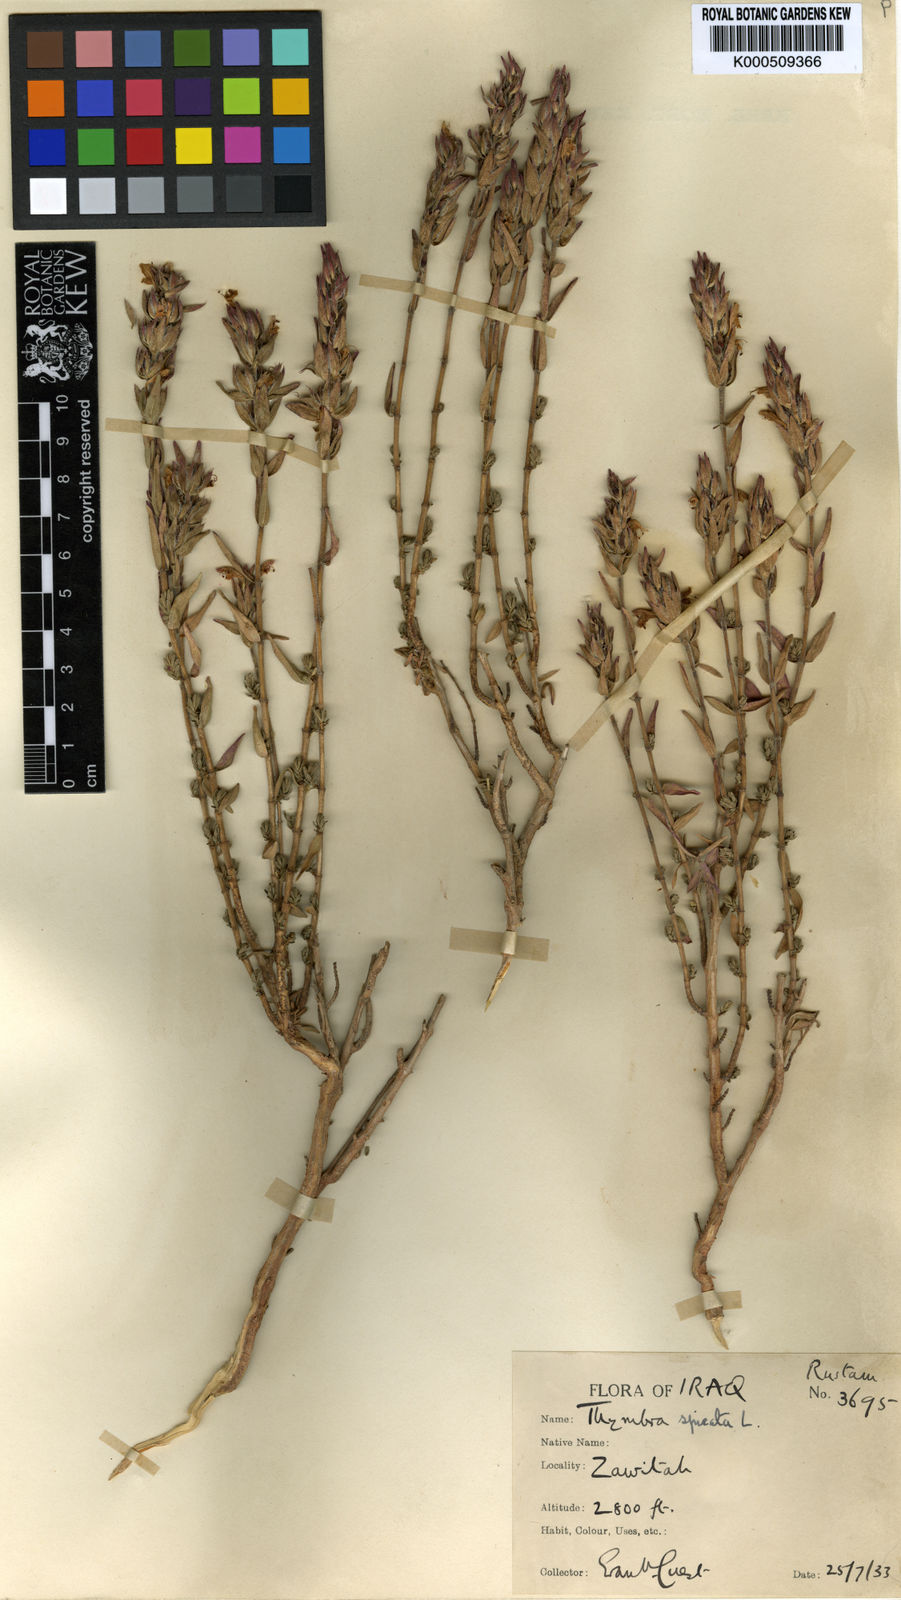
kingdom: Plantae
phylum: Tracheophyta
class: Magnoliopsida
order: Lamiales
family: Lamiaceae
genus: Thymbra
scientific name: Thymbra spicata
